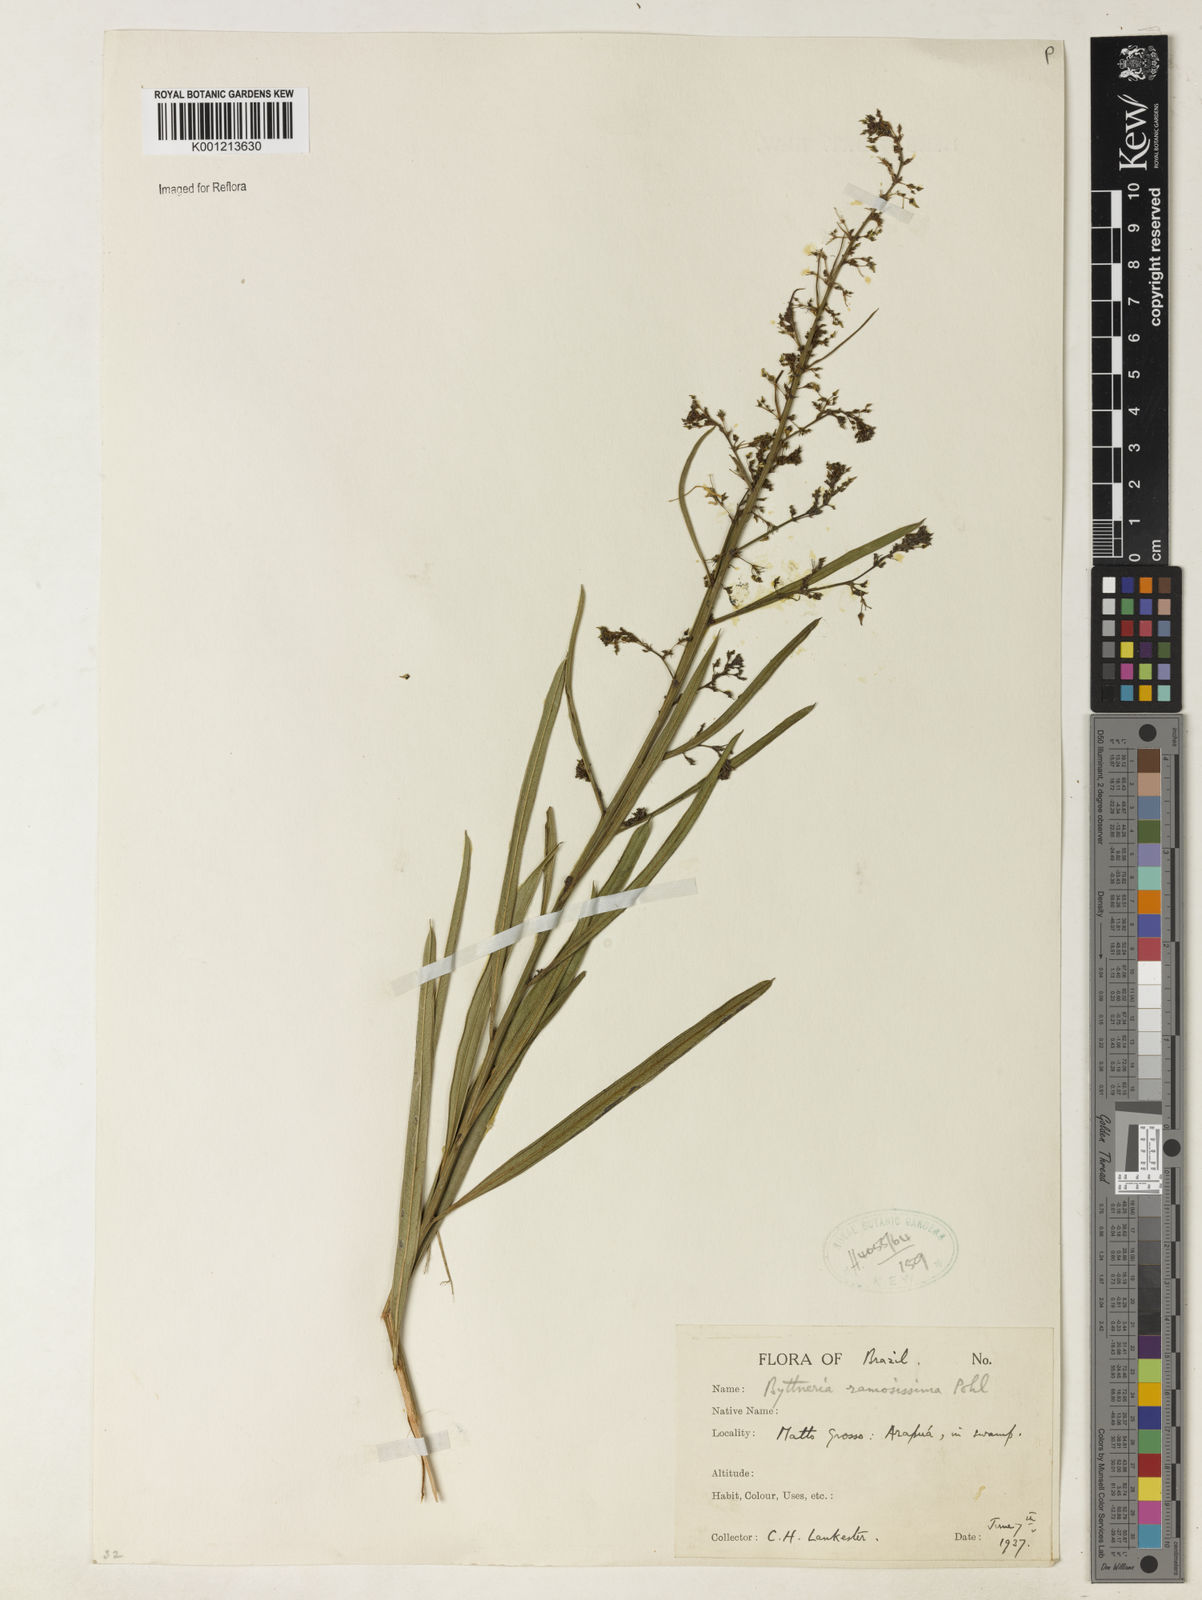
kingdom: Plantae
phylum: Tracheophyta
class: Magnoliopsida
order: Malvales
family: Malvaceae
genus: Byttneria
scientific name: Byttneria ramosissima
